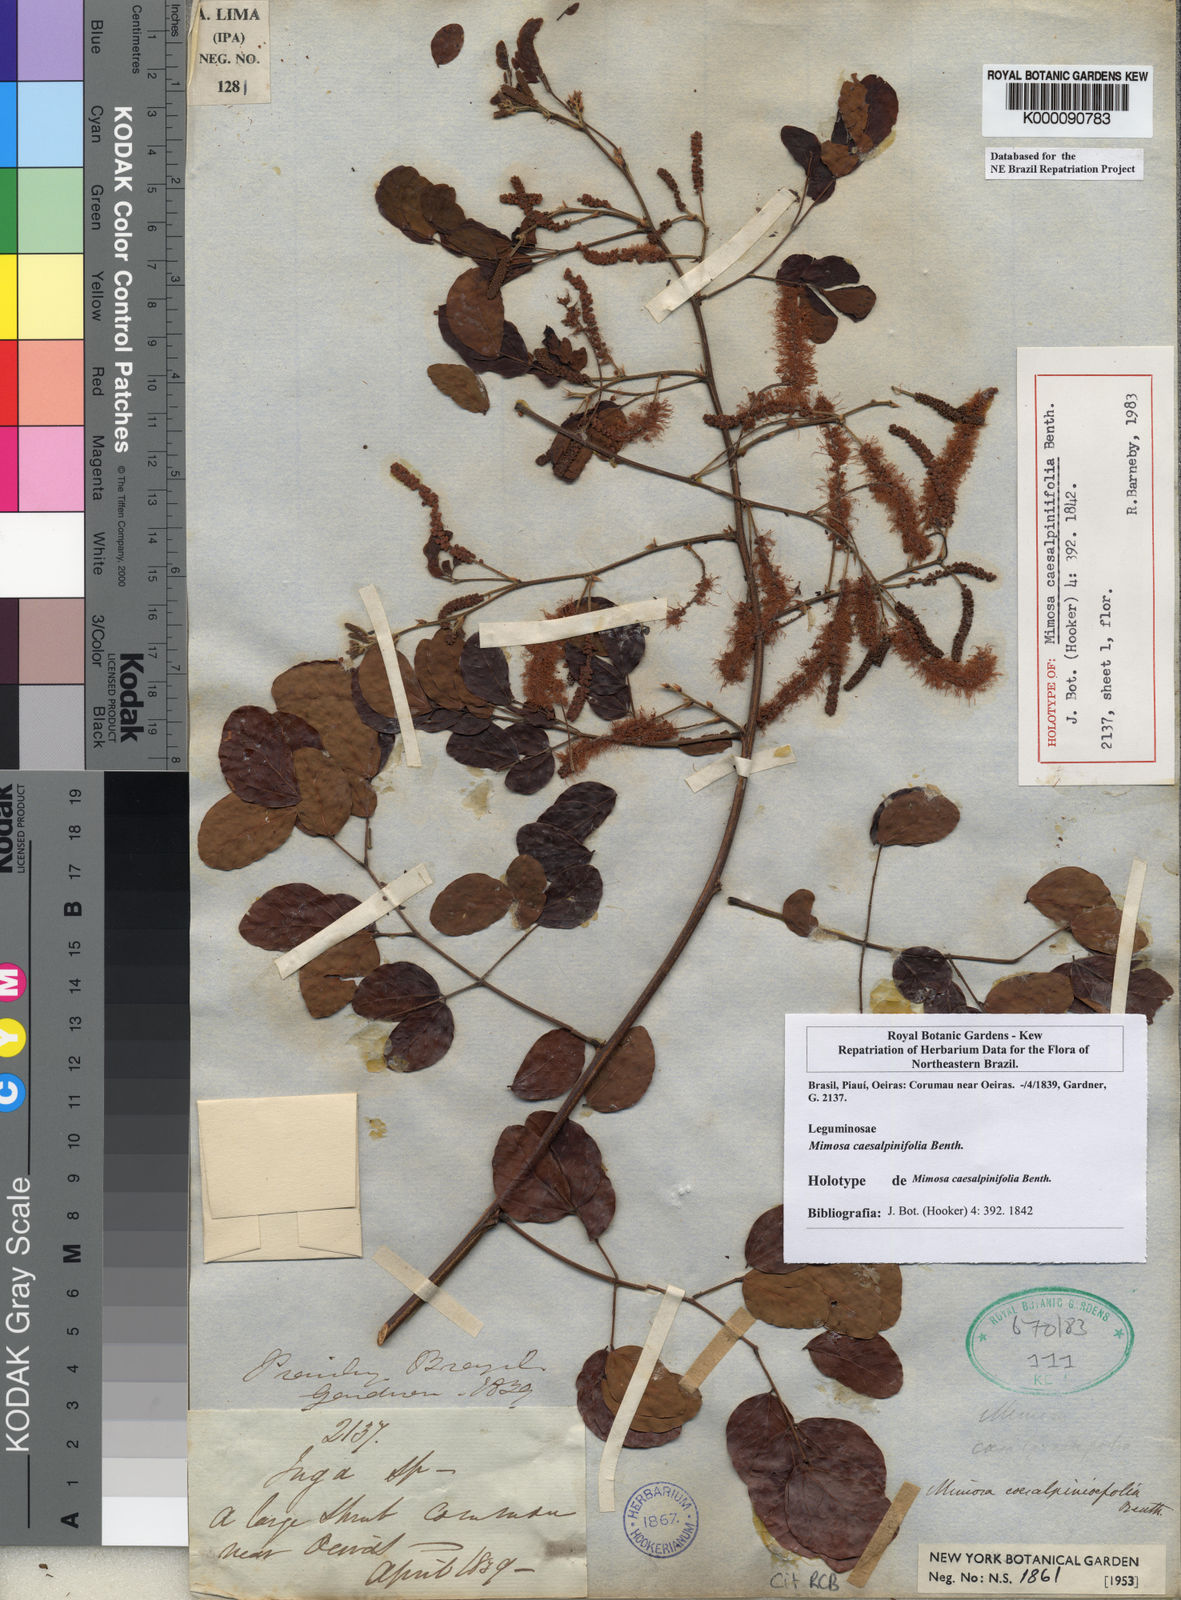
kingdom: Plantae
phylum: Tracheophyta
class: Magnoliopsida
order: Fabales
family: Fabaceae
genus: Mimosa
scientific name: Mimosa caesalpiniifolia
